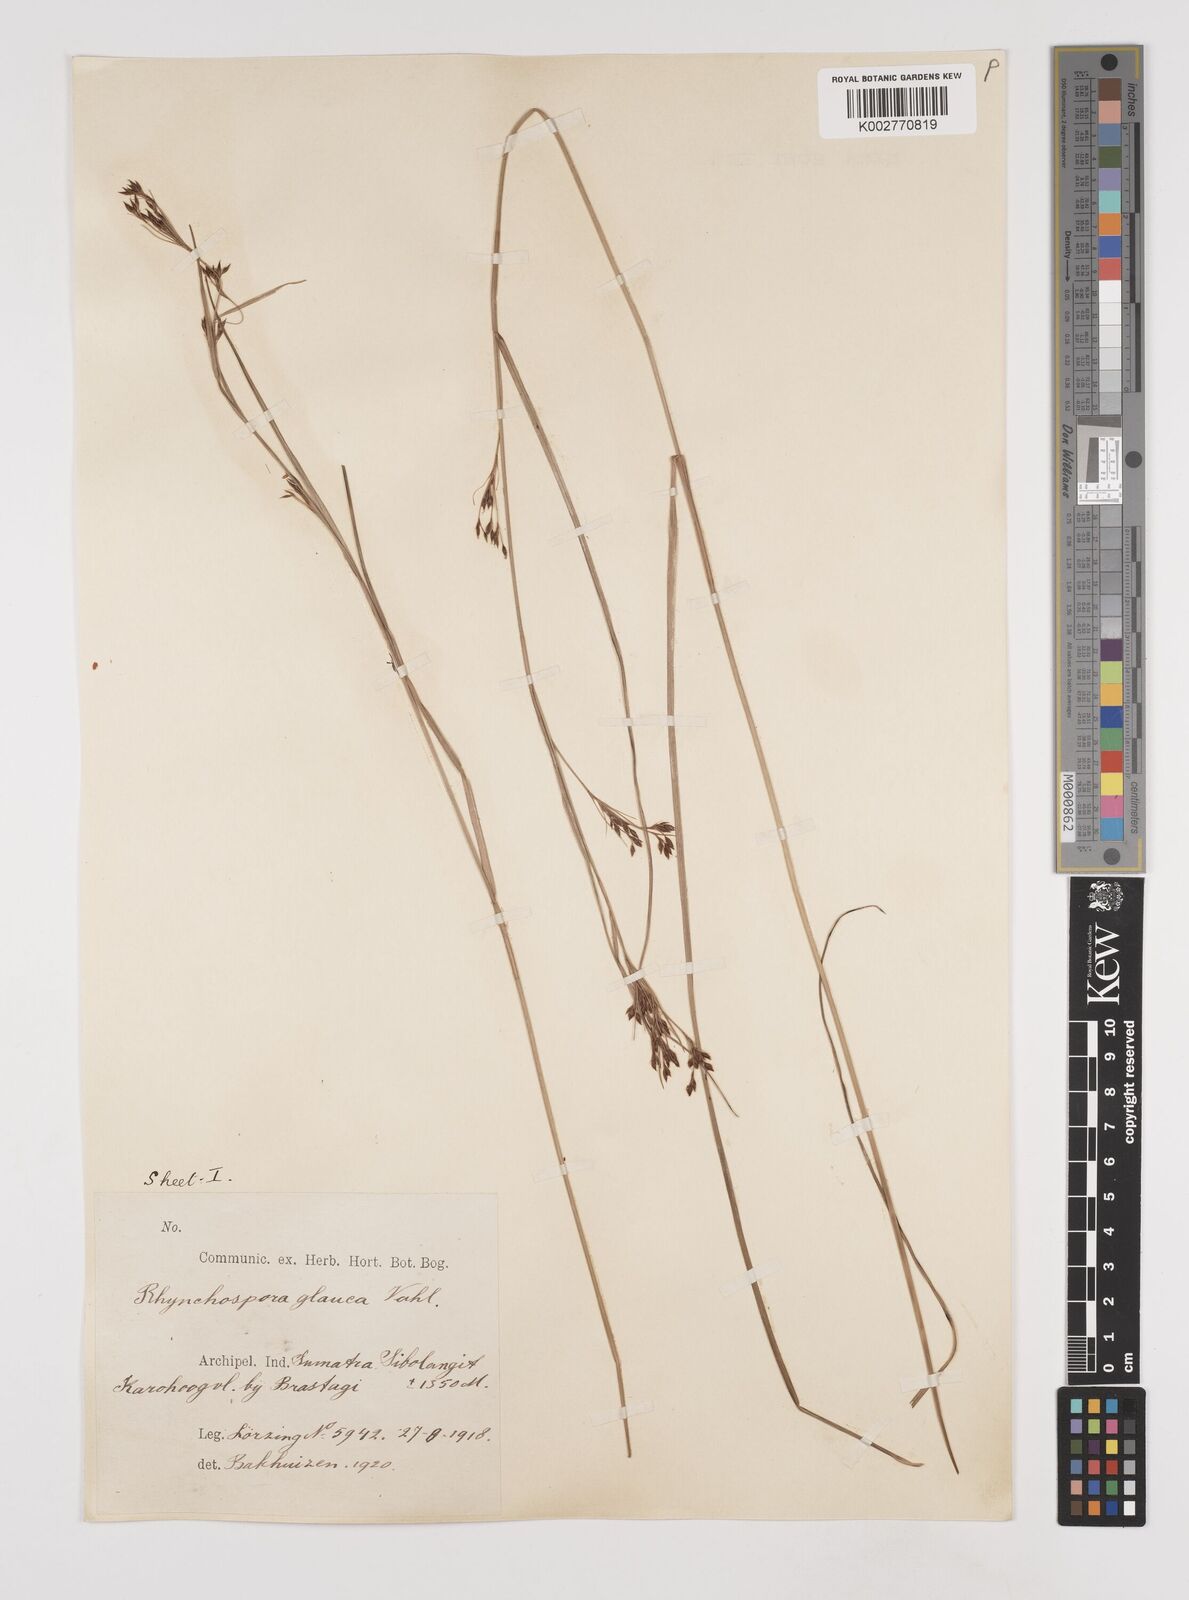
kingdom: Plantae
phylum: Tracheophyta
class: Liliopsida
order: Poales
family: Cyperaceae
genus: Rhynchospora
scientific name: Rhynchospora rugosa
